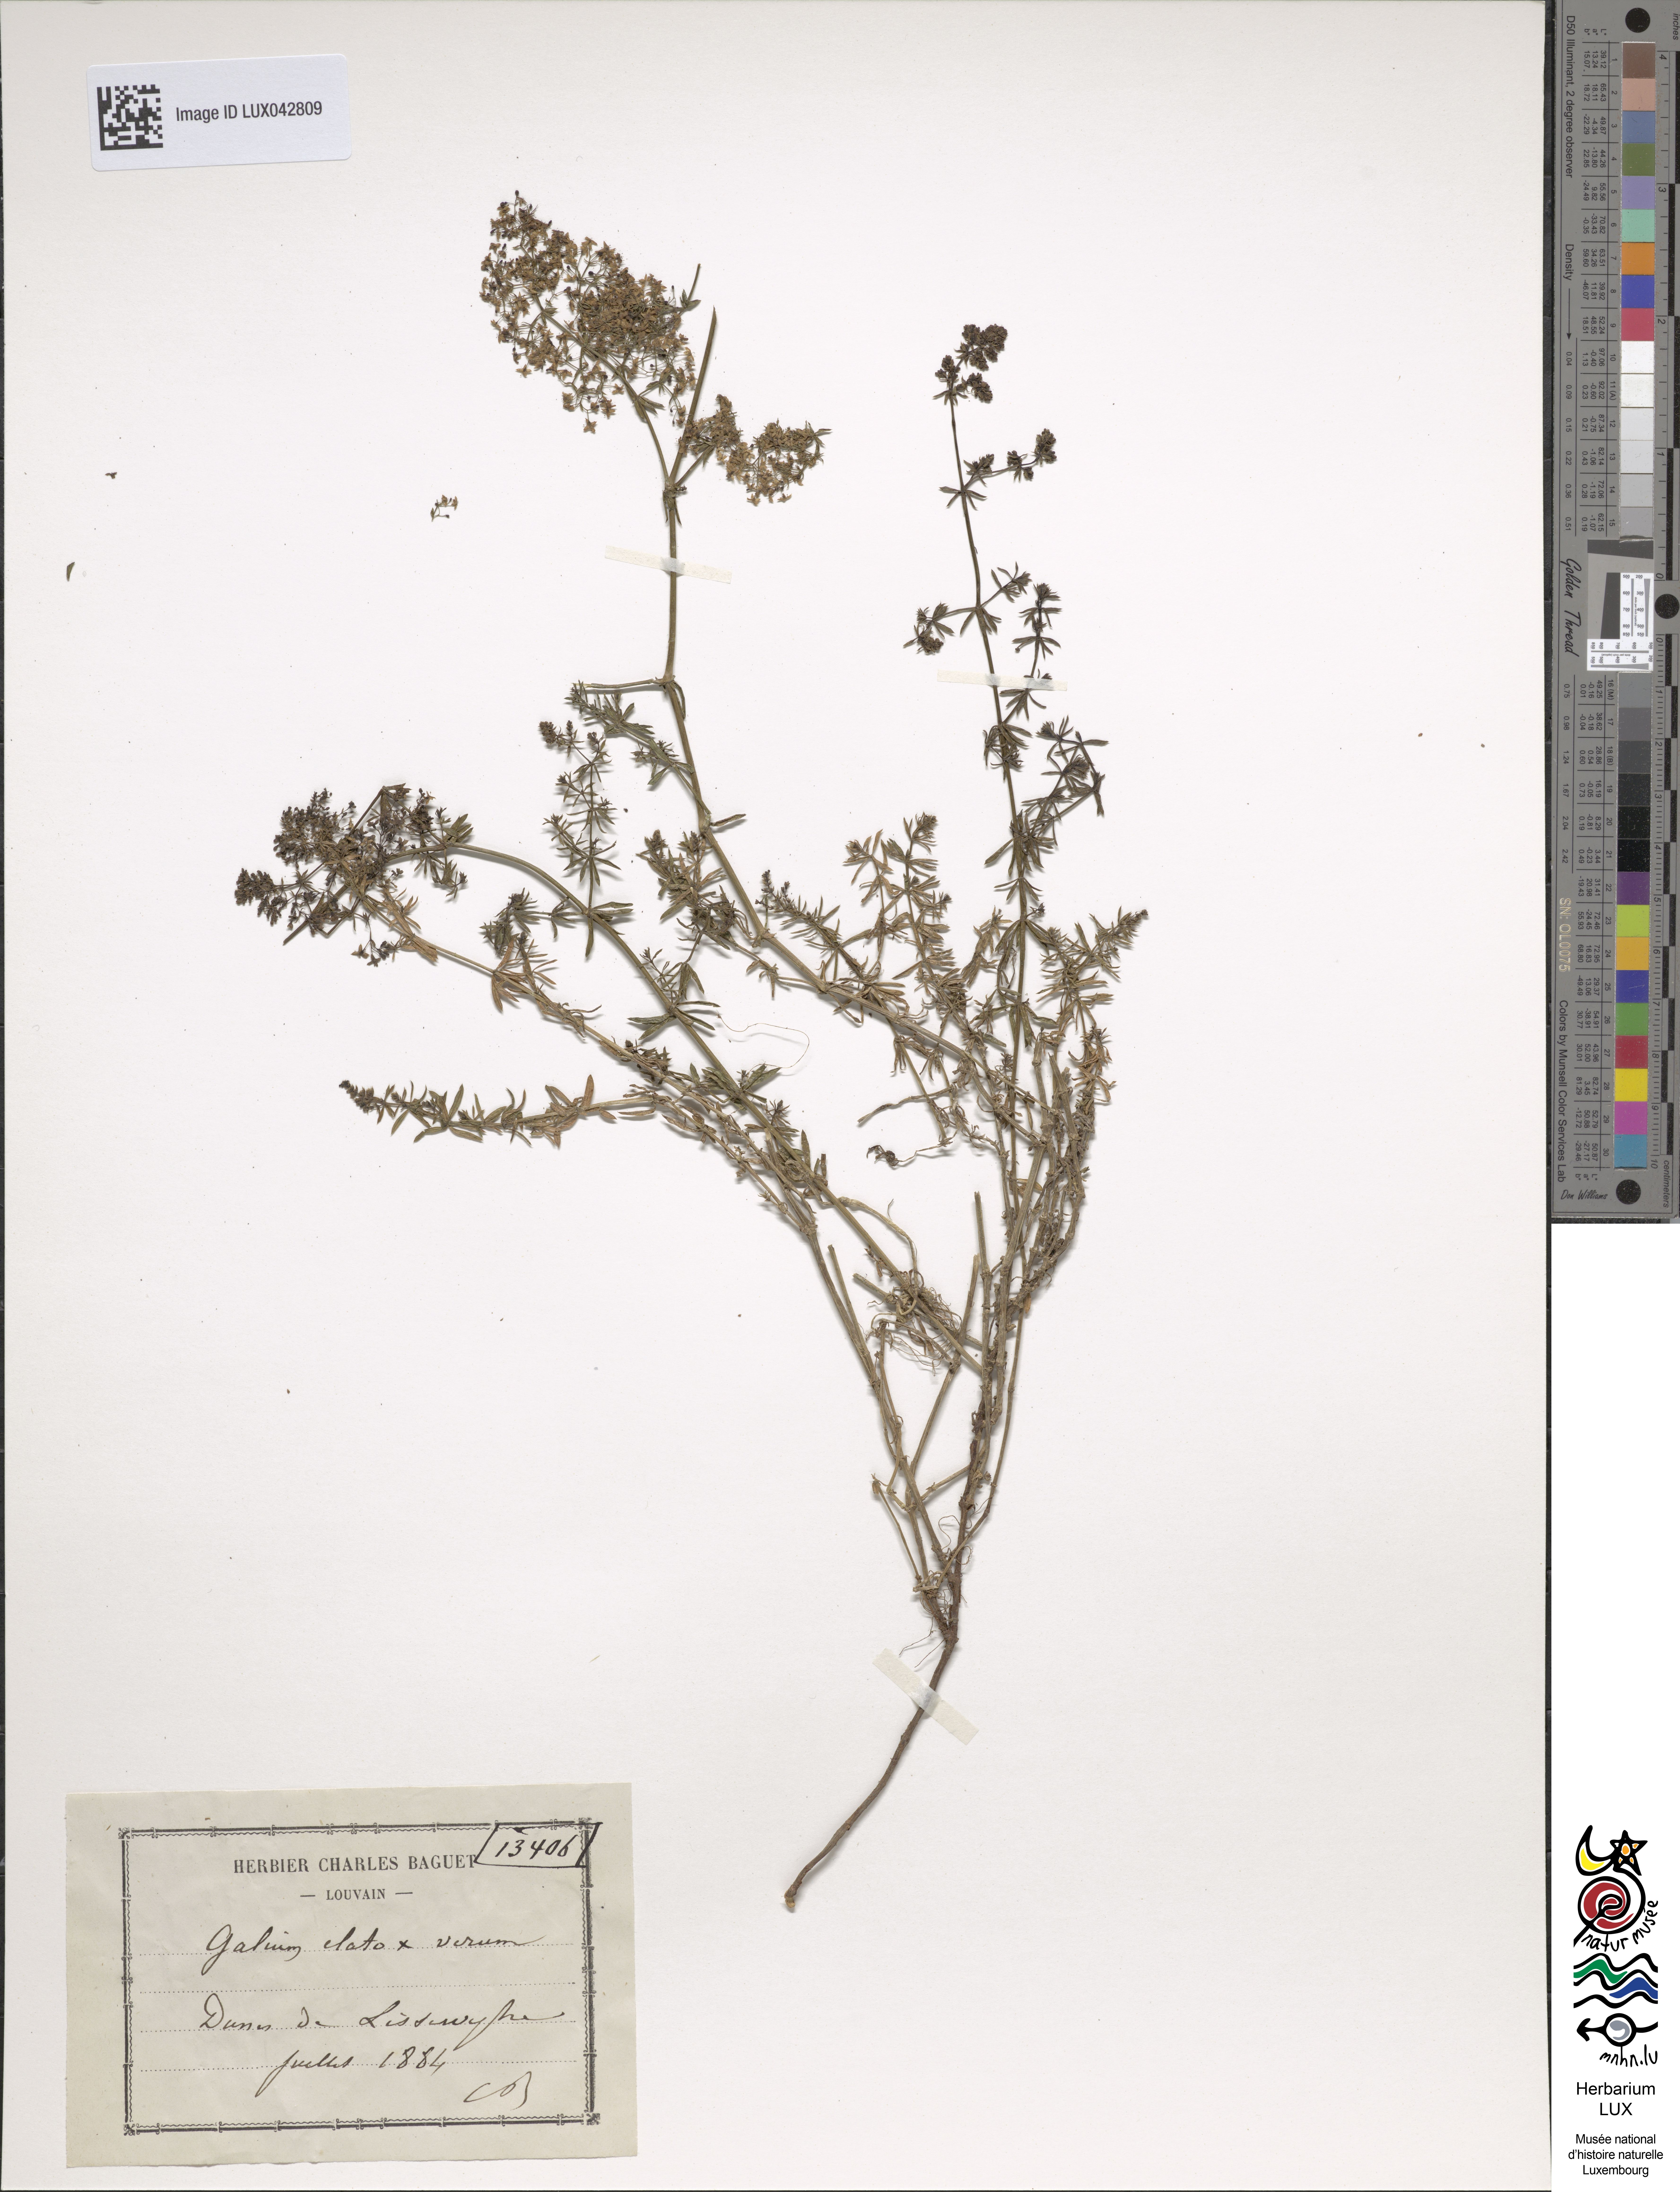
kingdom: Plantae
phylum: Tracheophyta
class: Magnoliopsida
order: Gentianales
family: Rubiaceae
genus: Galium
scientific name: Galium
